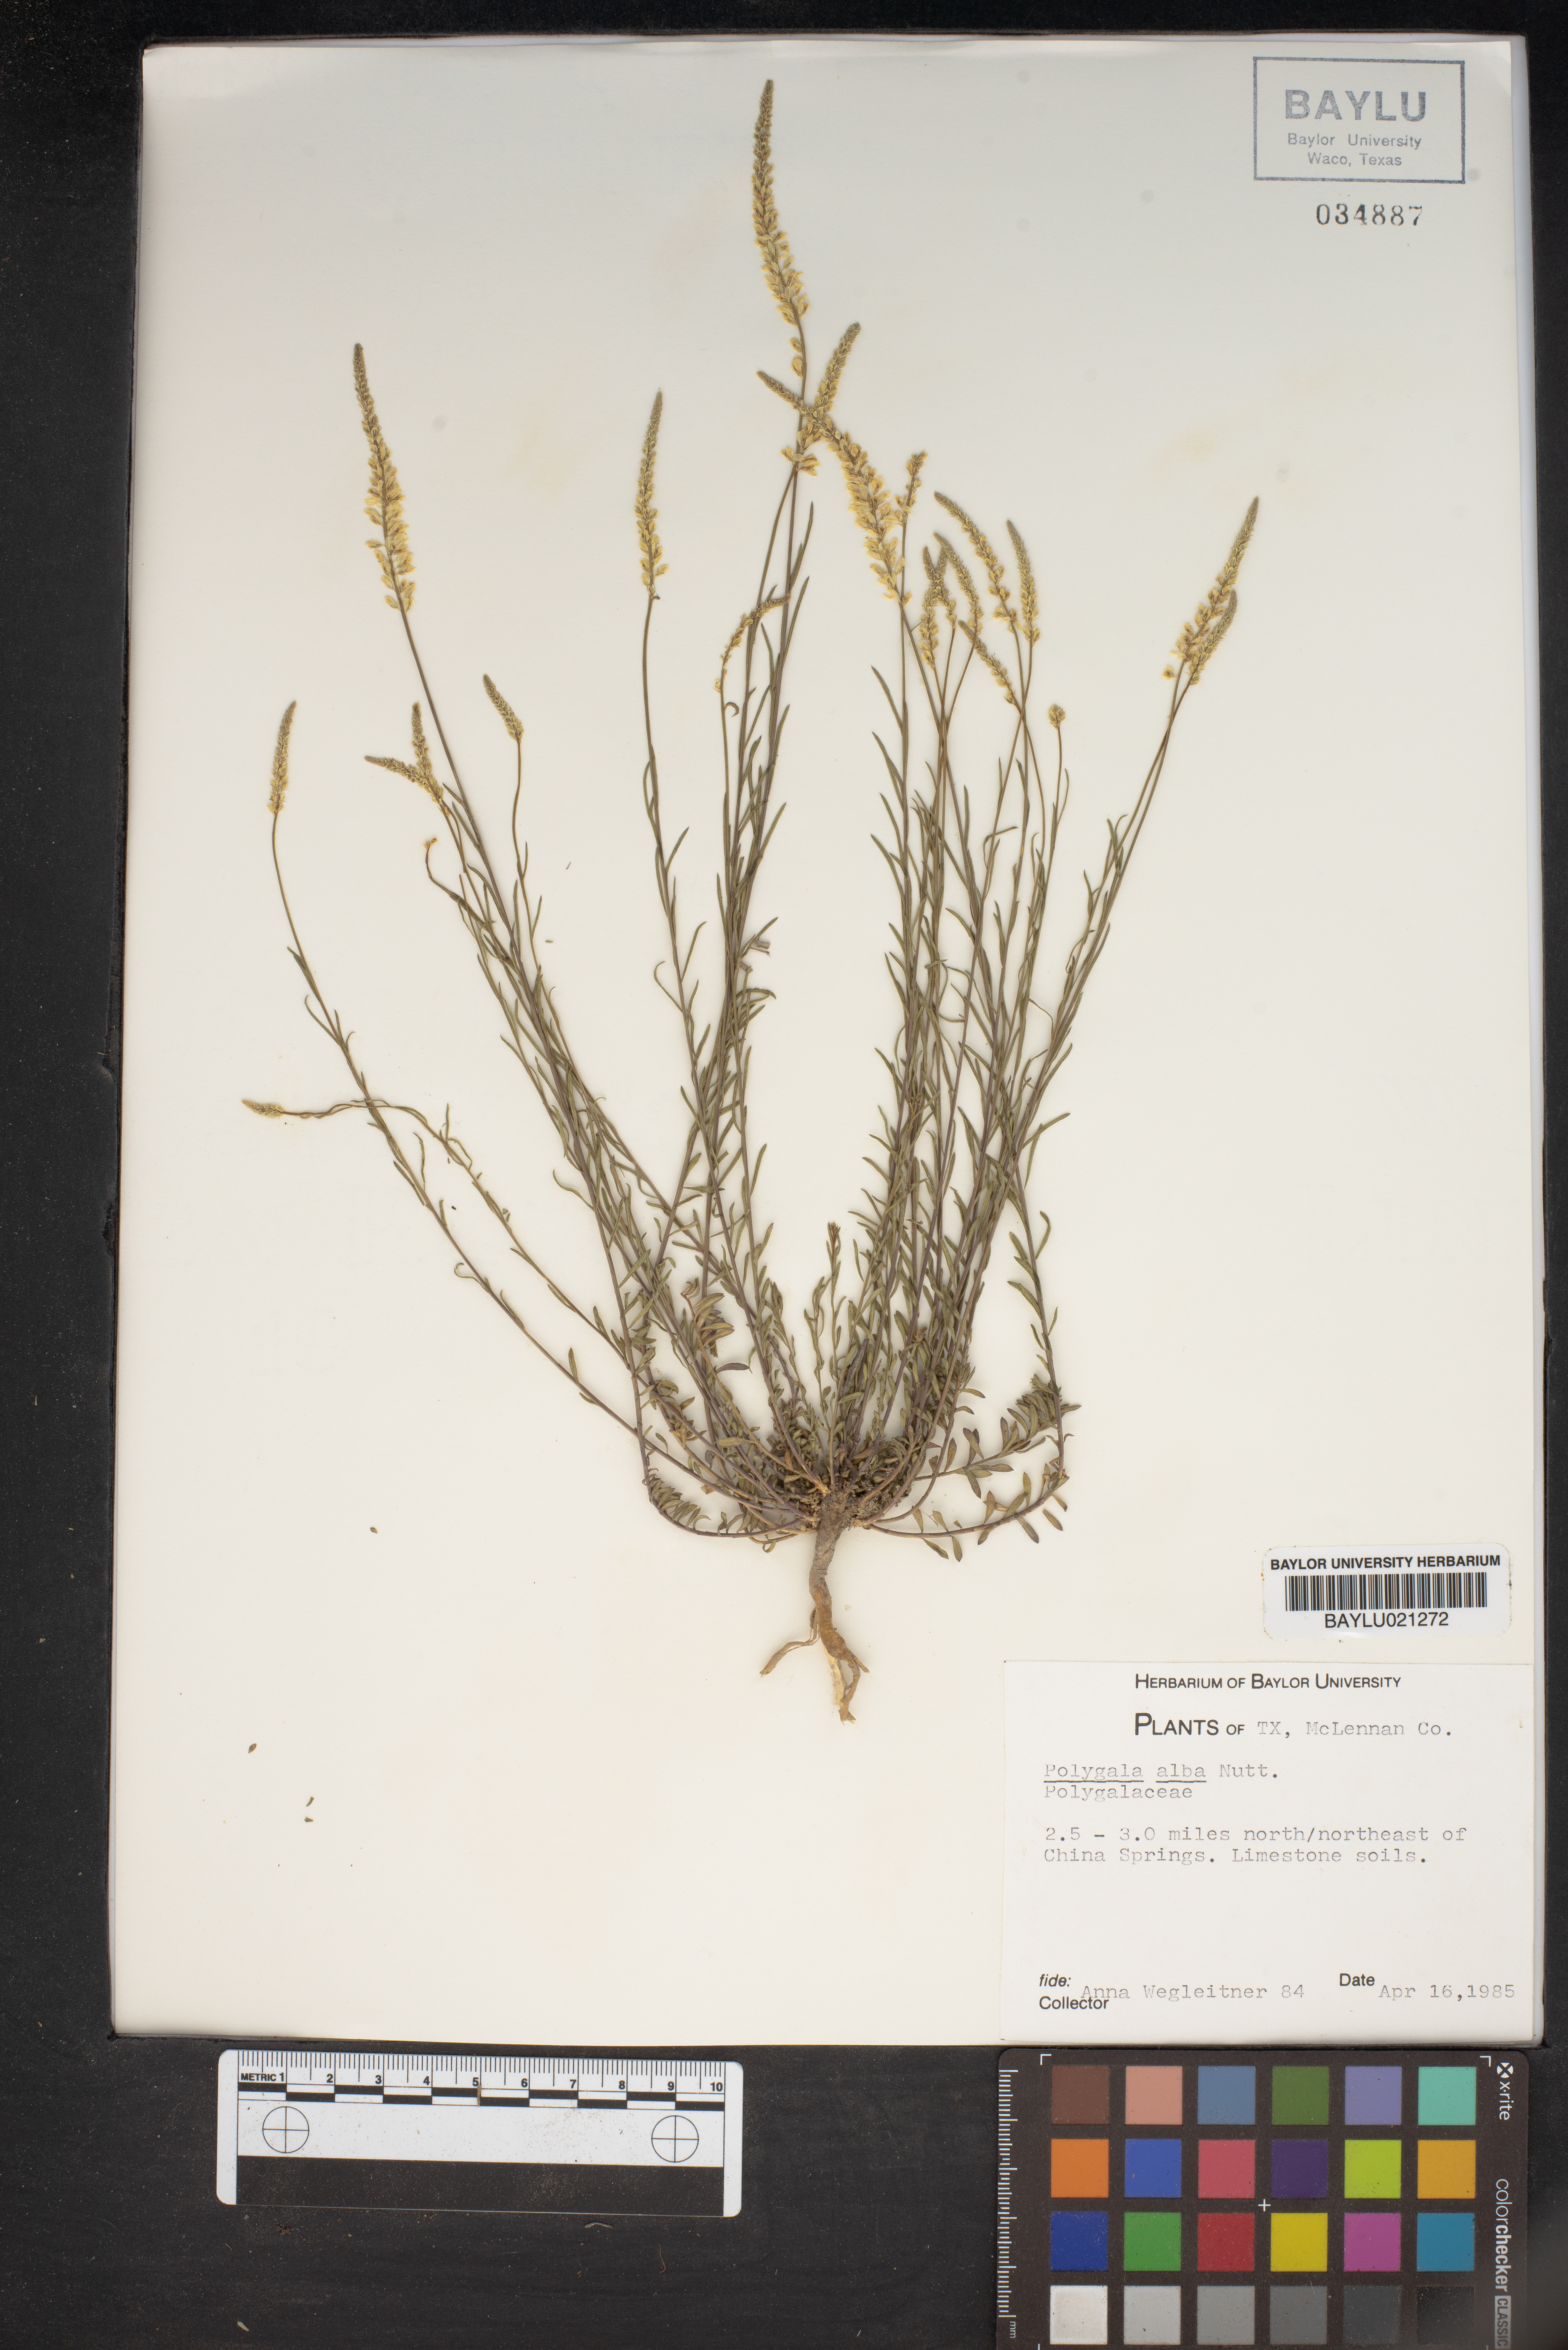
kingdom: Plantae
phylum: Tracheophyta
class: Magnoliopsida
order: Fabales
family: Polygalaceae
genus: Polygala
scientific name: Polygala alba
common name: White milkwort
